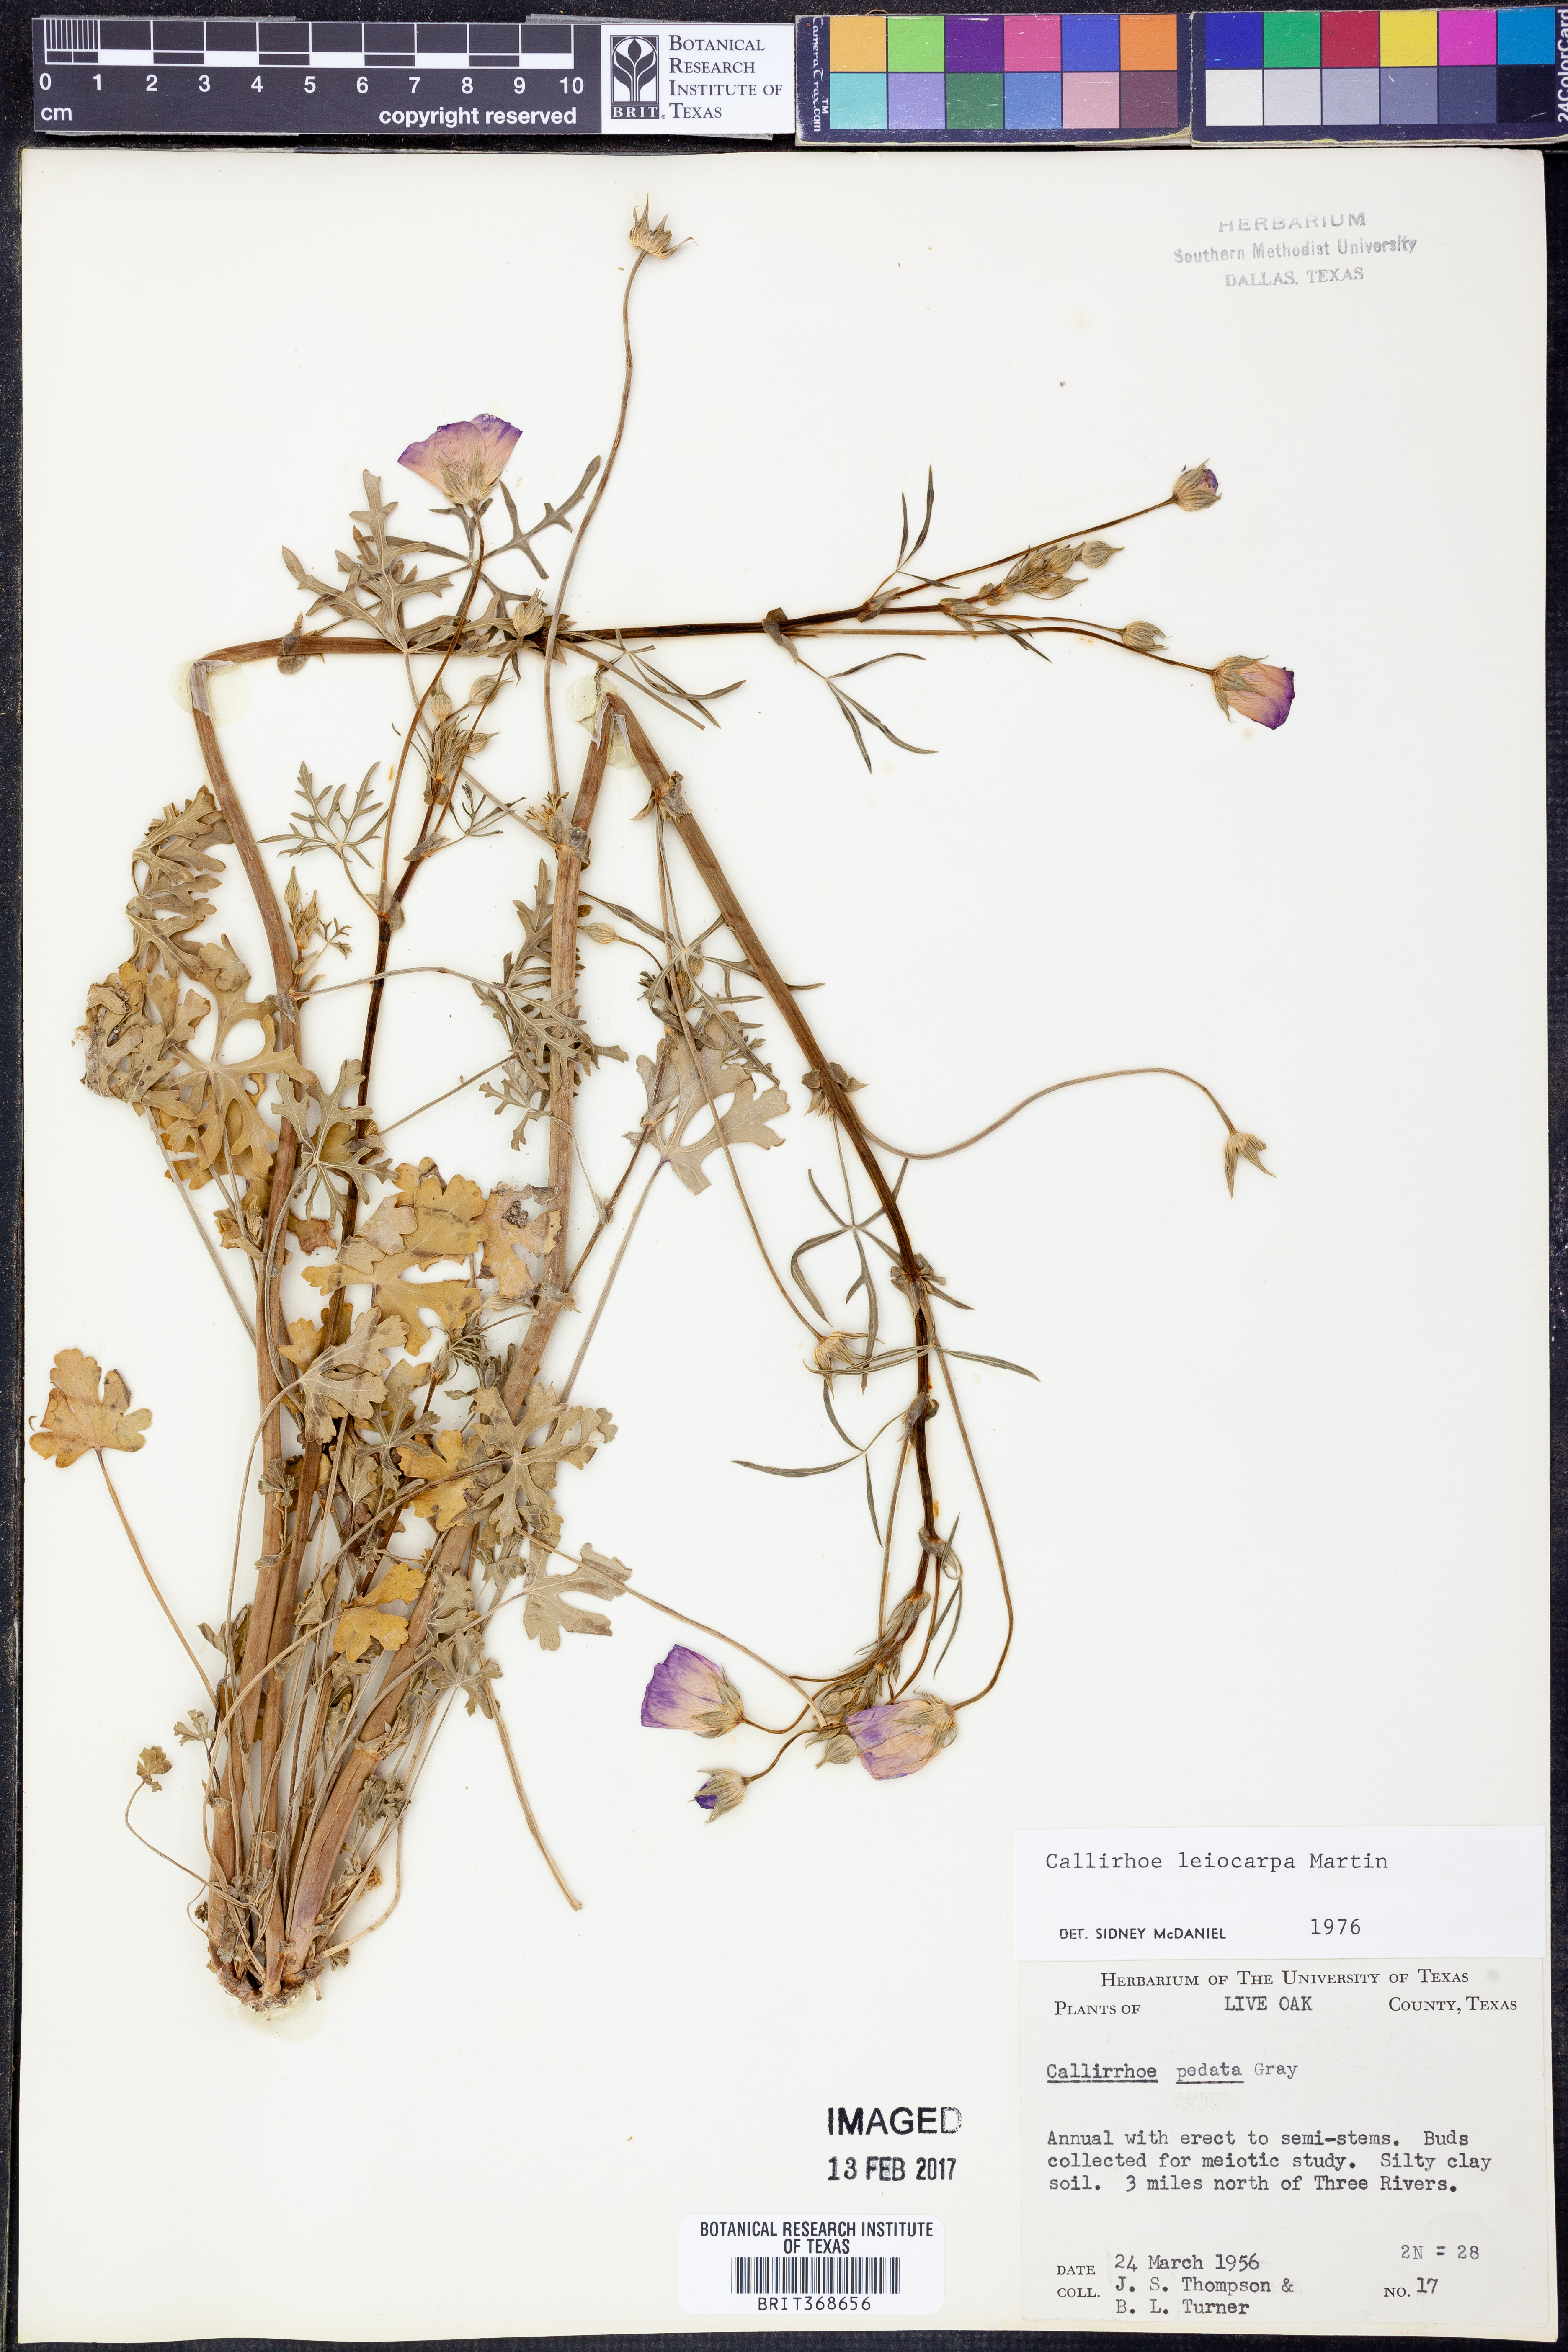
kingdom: Plantae
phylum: Tracheophyta
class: Magnoliopsida
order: Malvales
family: Malvaceae
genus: Callirhoe
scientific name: Callirhoe leiocarpa
